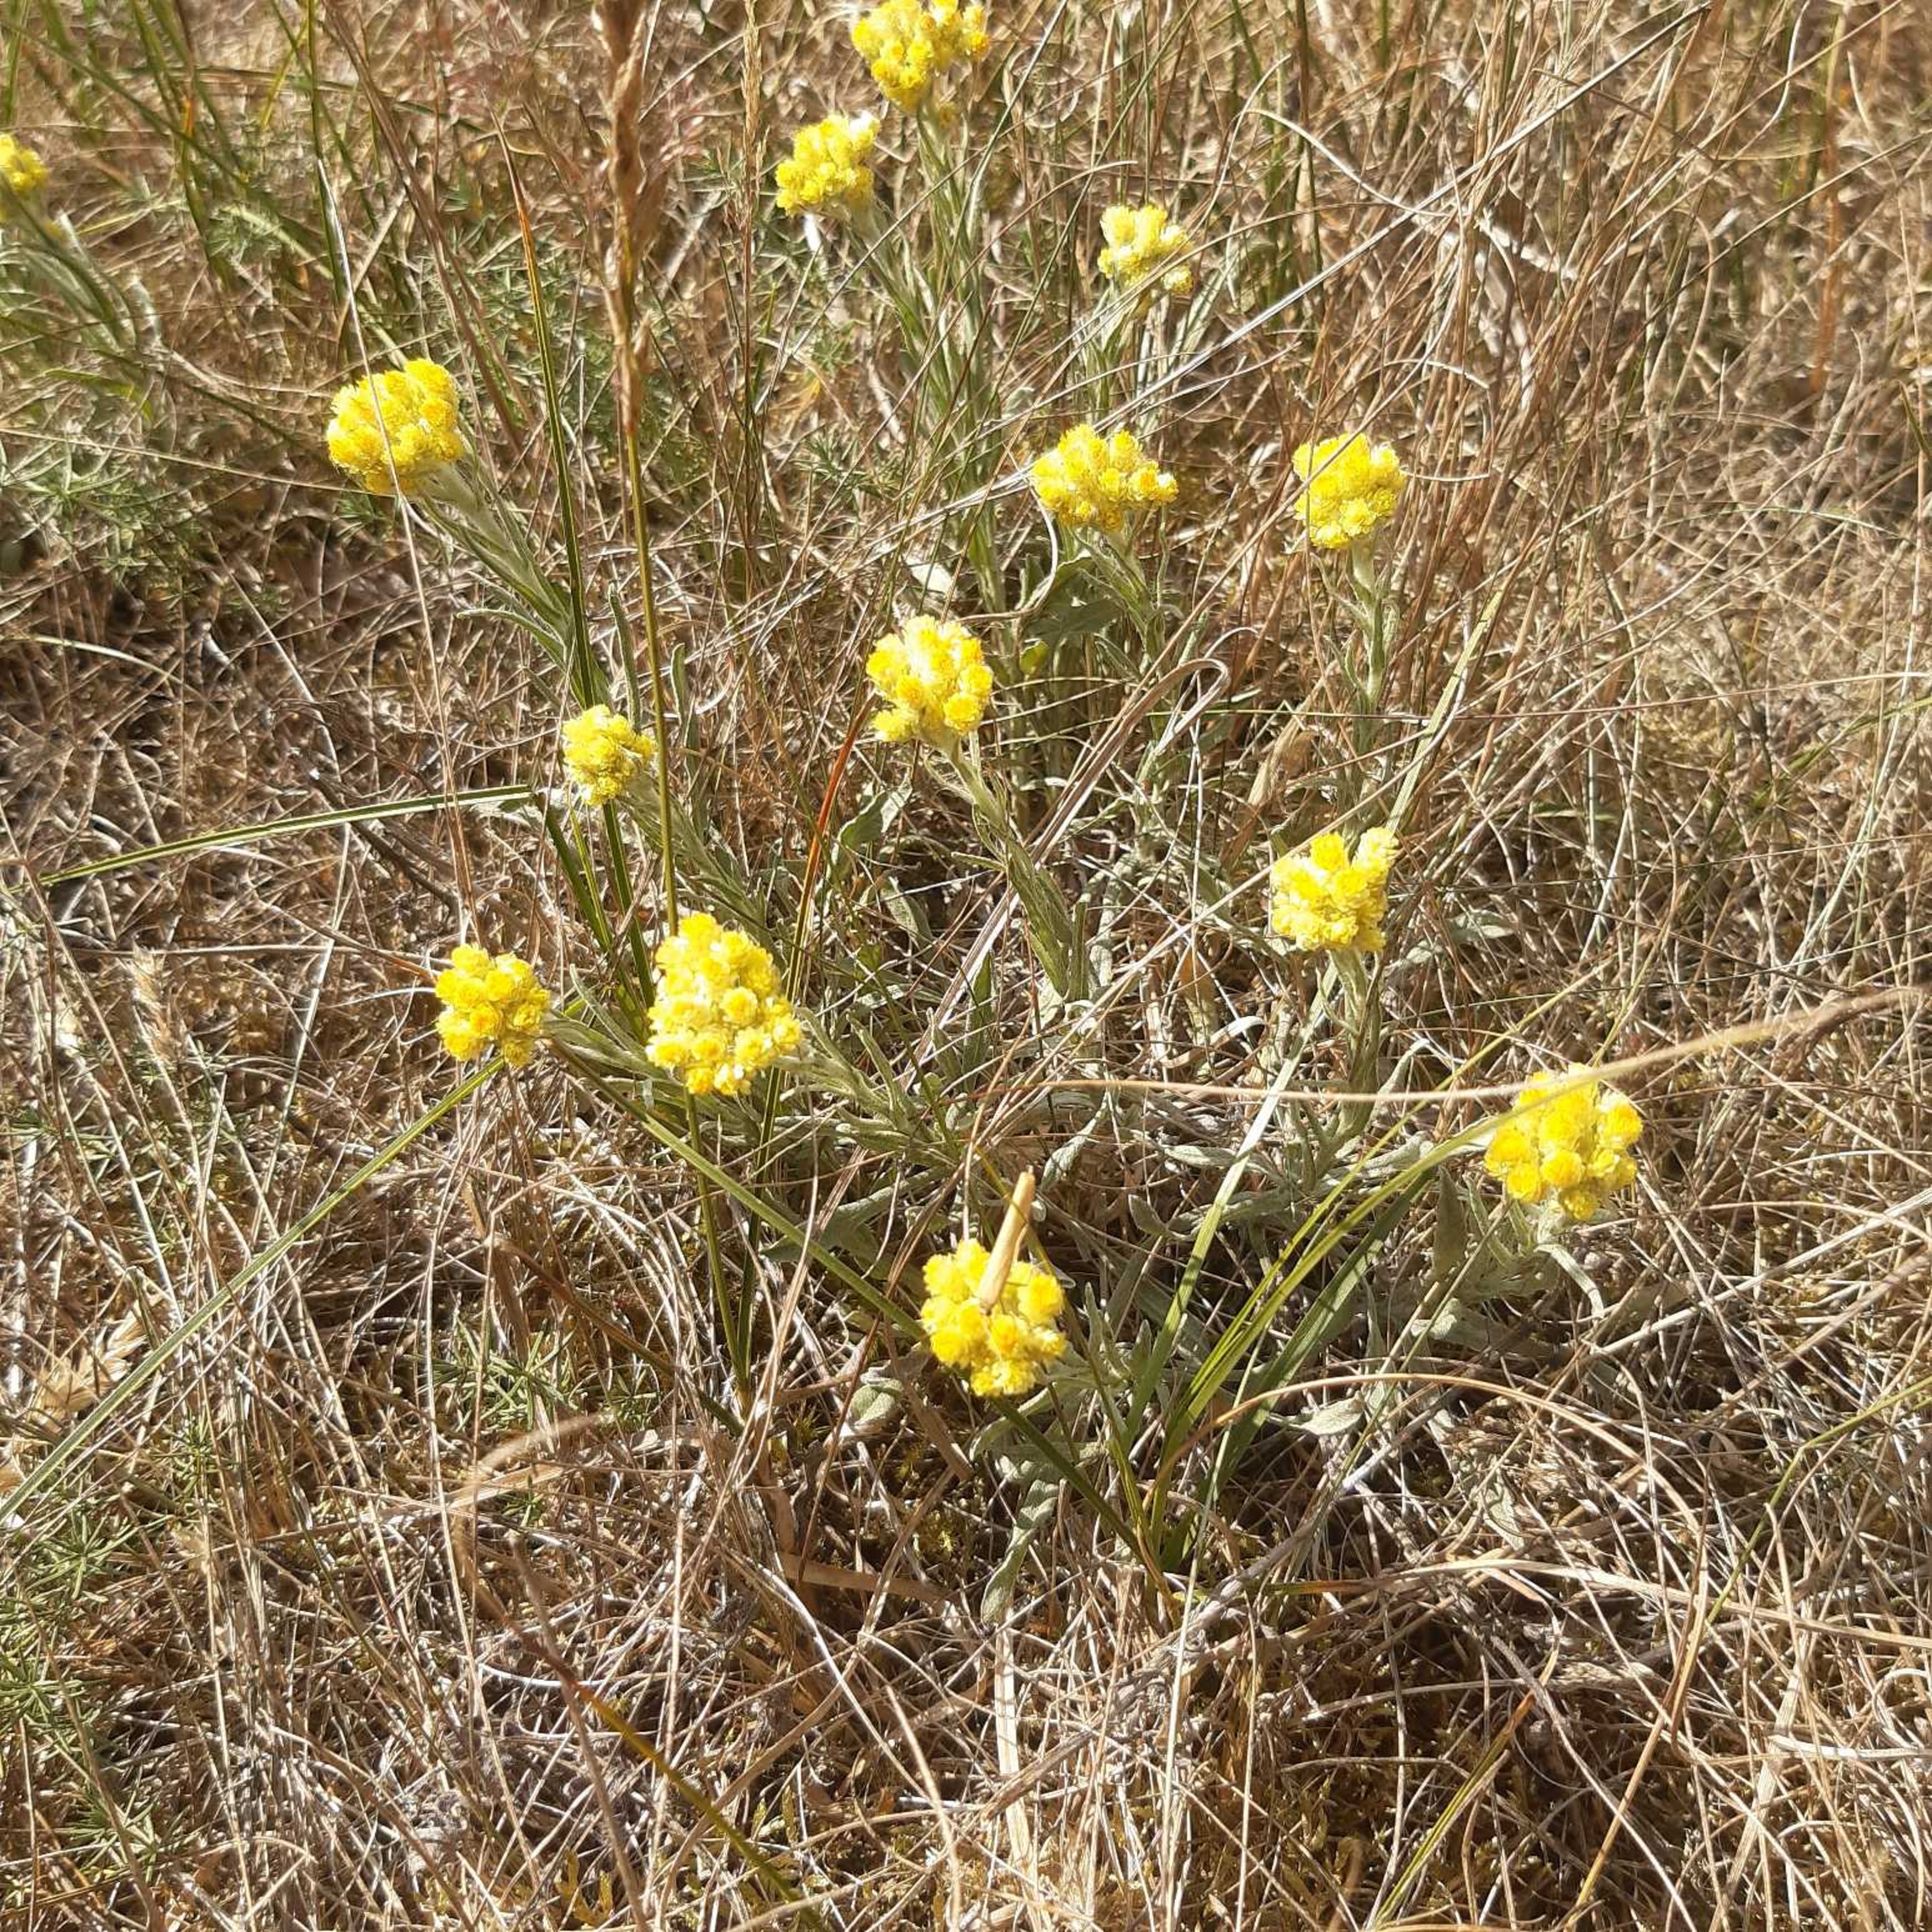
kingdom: Plantae
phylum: Tracheophyta
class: Magnoliopsida
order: Asterales
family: Asteraceae
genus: Helichrysum
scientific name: Helichrysum arenarium
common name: Gul evighedsblomst
